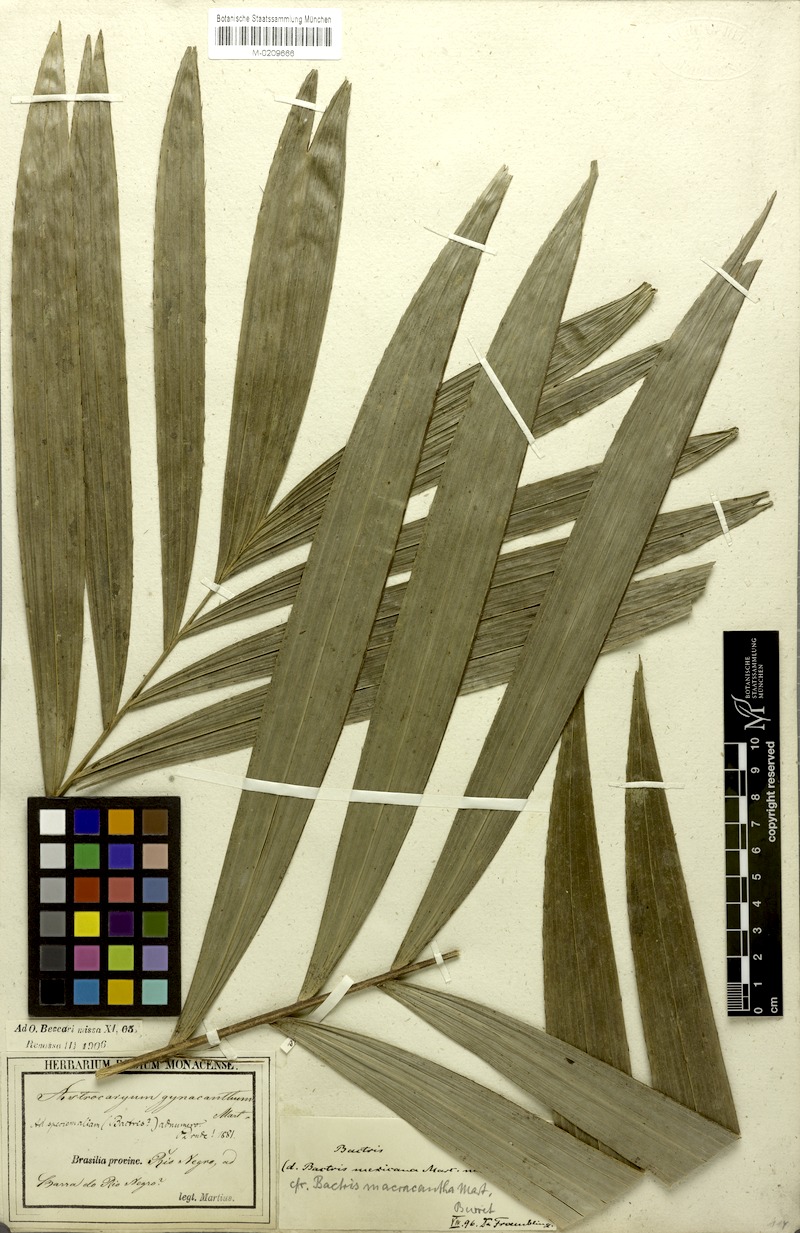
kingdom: Plantae
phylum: Tracheophyta
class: Liliopsida
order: Arecales
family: Arecaceae
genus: Bactris
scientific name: Bactris macroacantha
